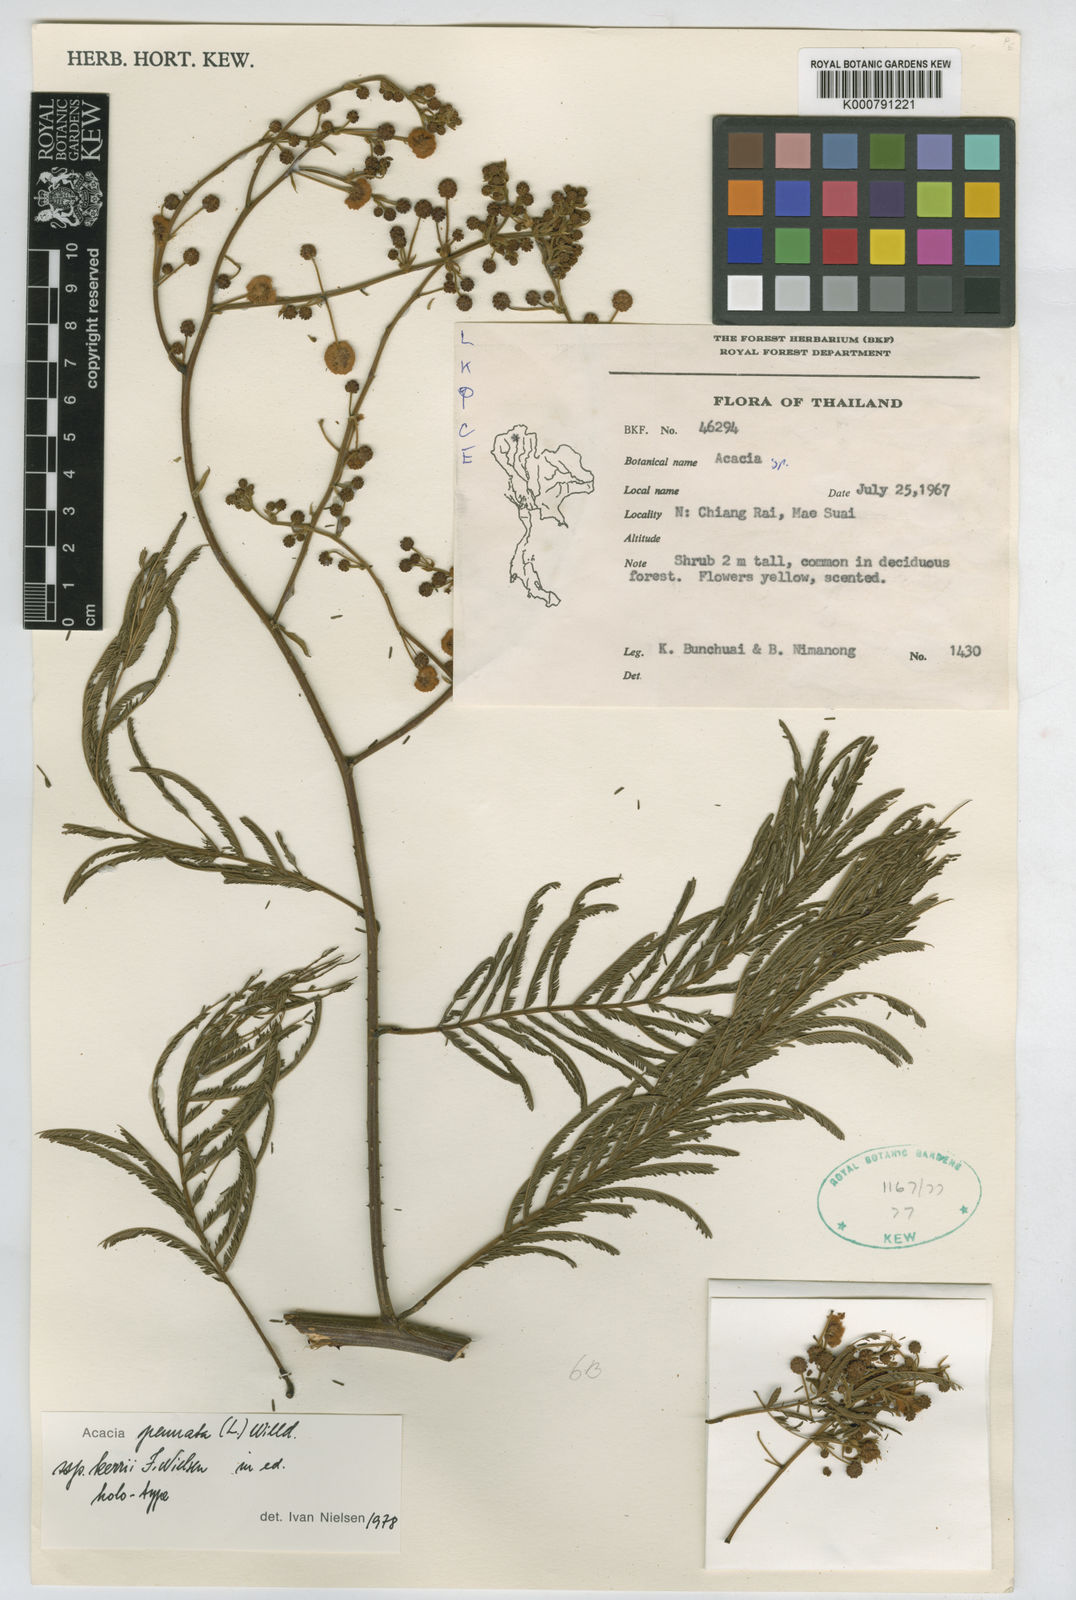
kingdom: Plantae
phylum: Tracheophyta
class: Magnoliopsida
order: Fabales
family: Fabaceae
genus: Senegalia
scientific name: Senegalia kerrii
